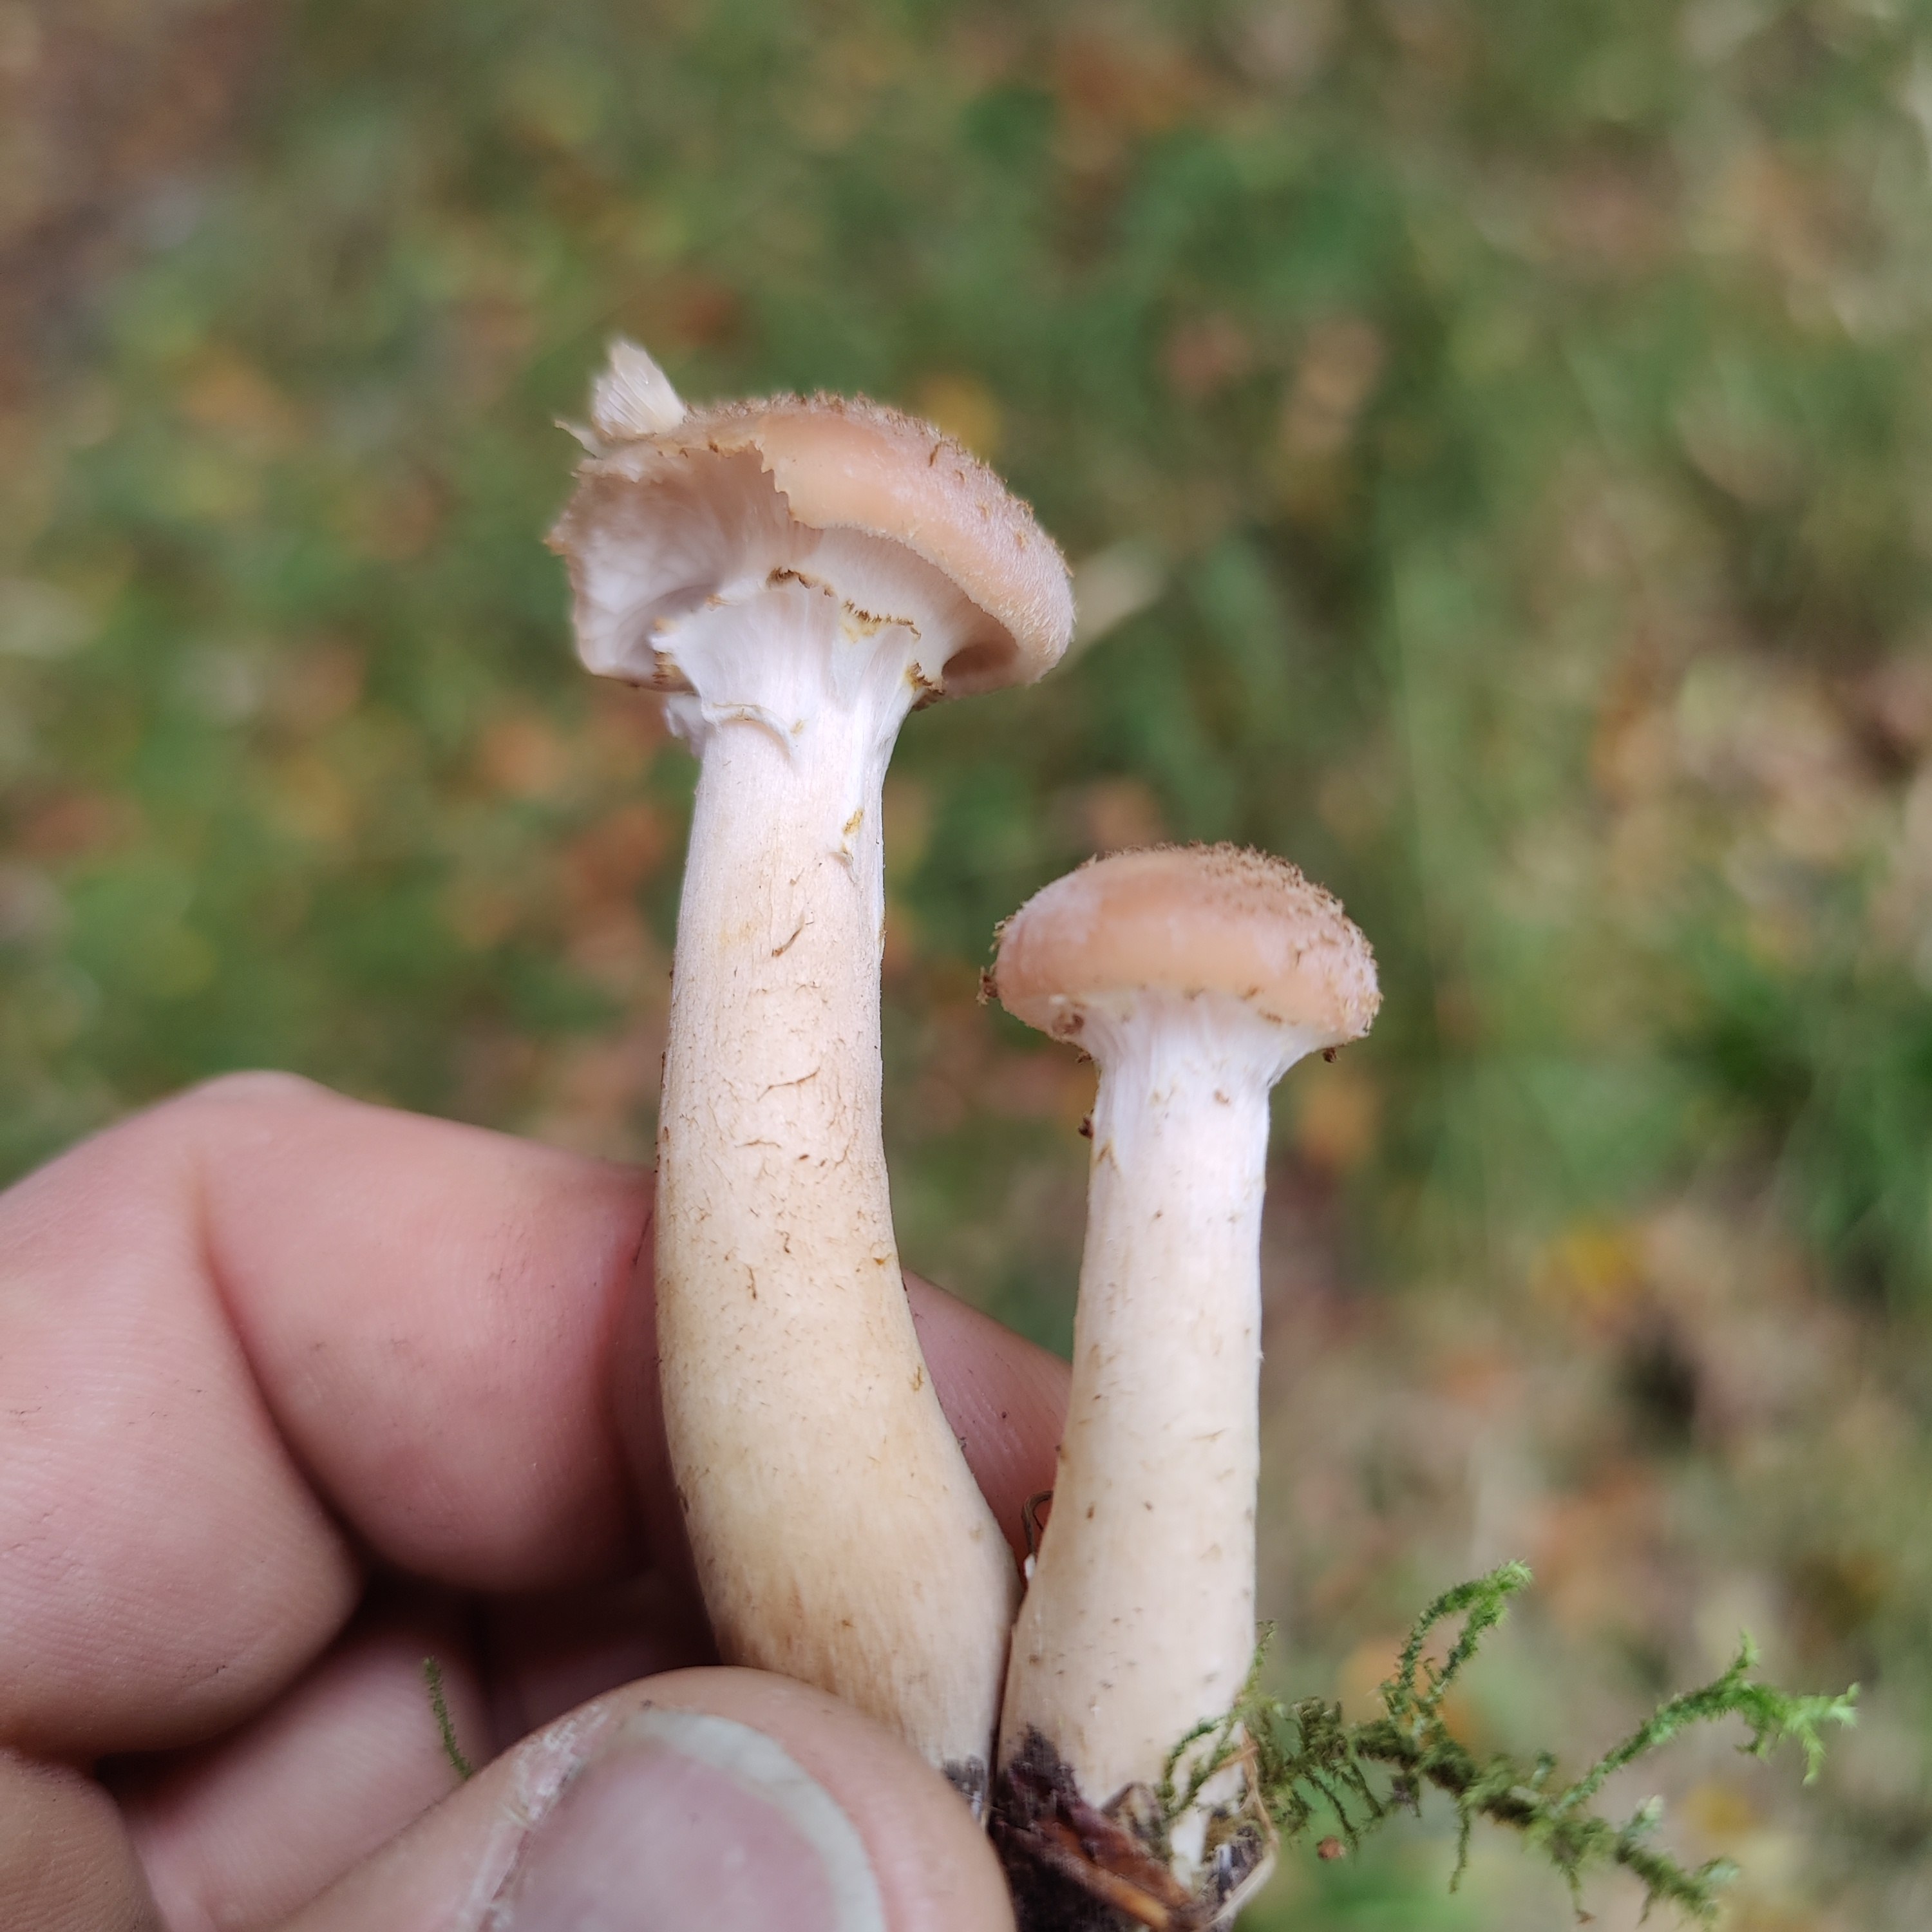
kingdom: Fungi
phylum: Basidiomycota
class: Agaricomycetes
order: Agaricales
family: Physalacriaceae
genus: Armillaria
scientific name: Armillaria ostoyae
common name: mørk honningsvamp
